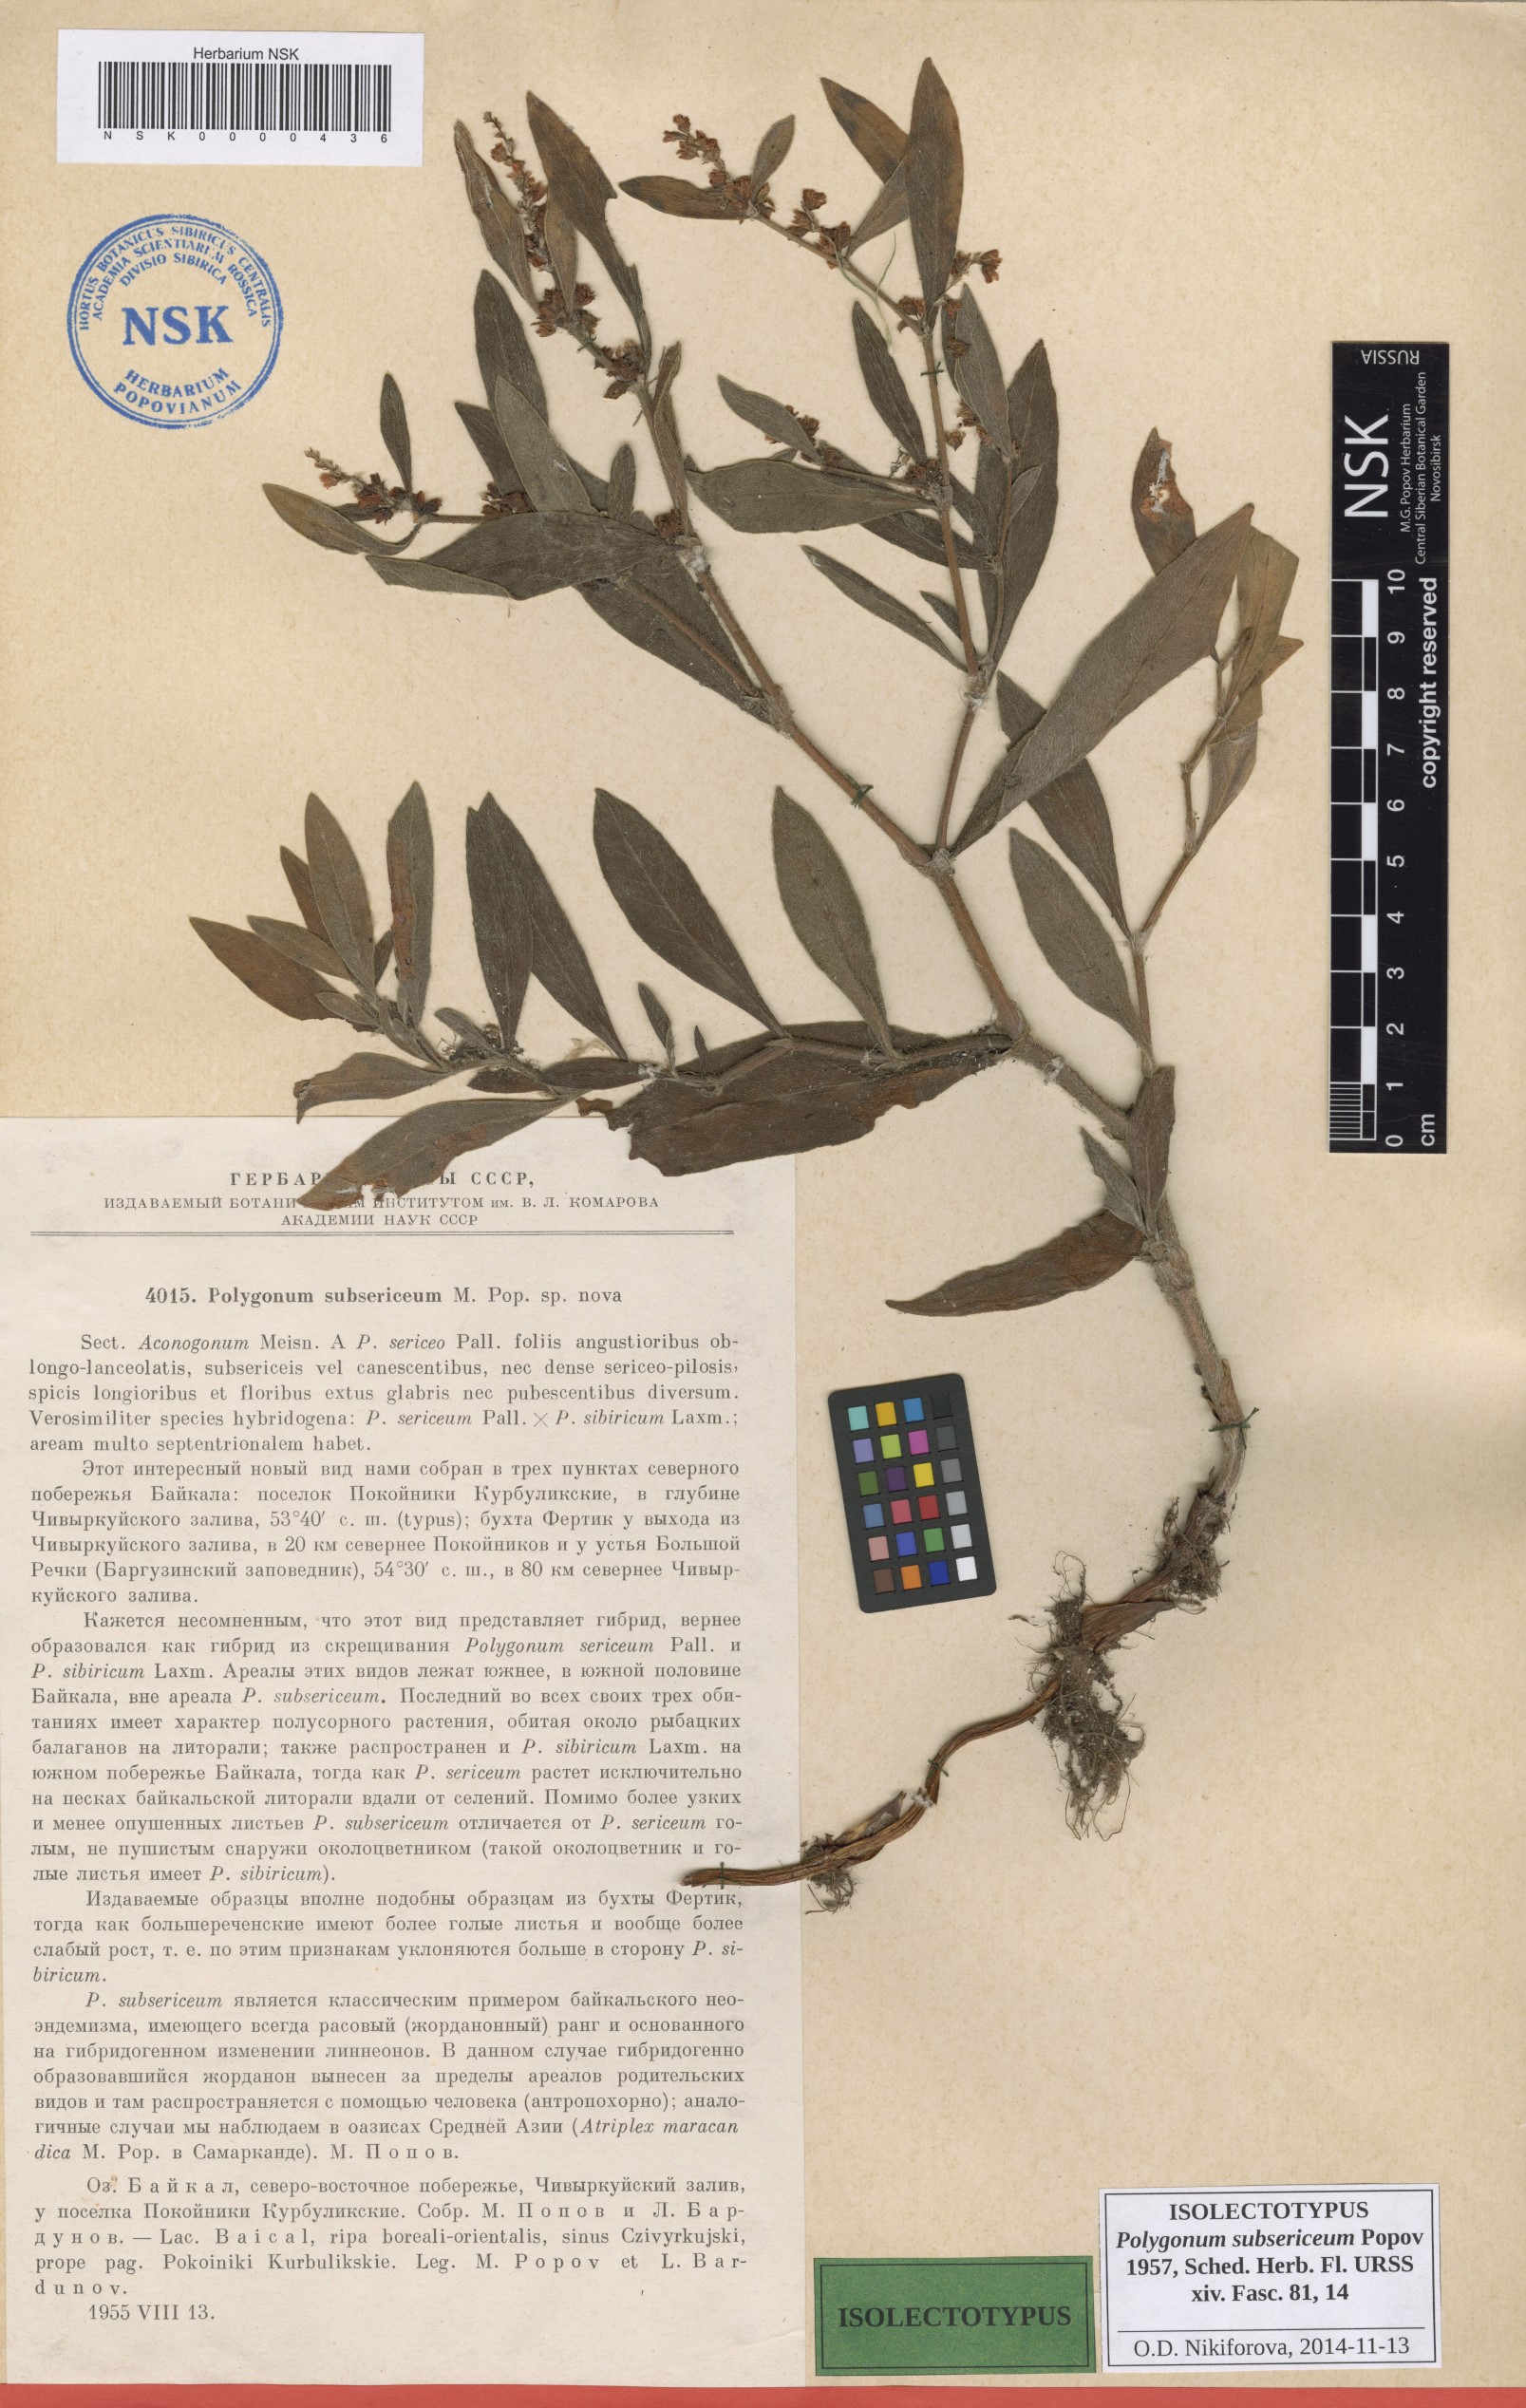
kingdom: Plantae
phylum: Tracheophyta
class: Magnoliopsida
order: Caryophyllales
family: Polygonaceae
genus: Koenigia
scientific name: Koenigia subsericea
